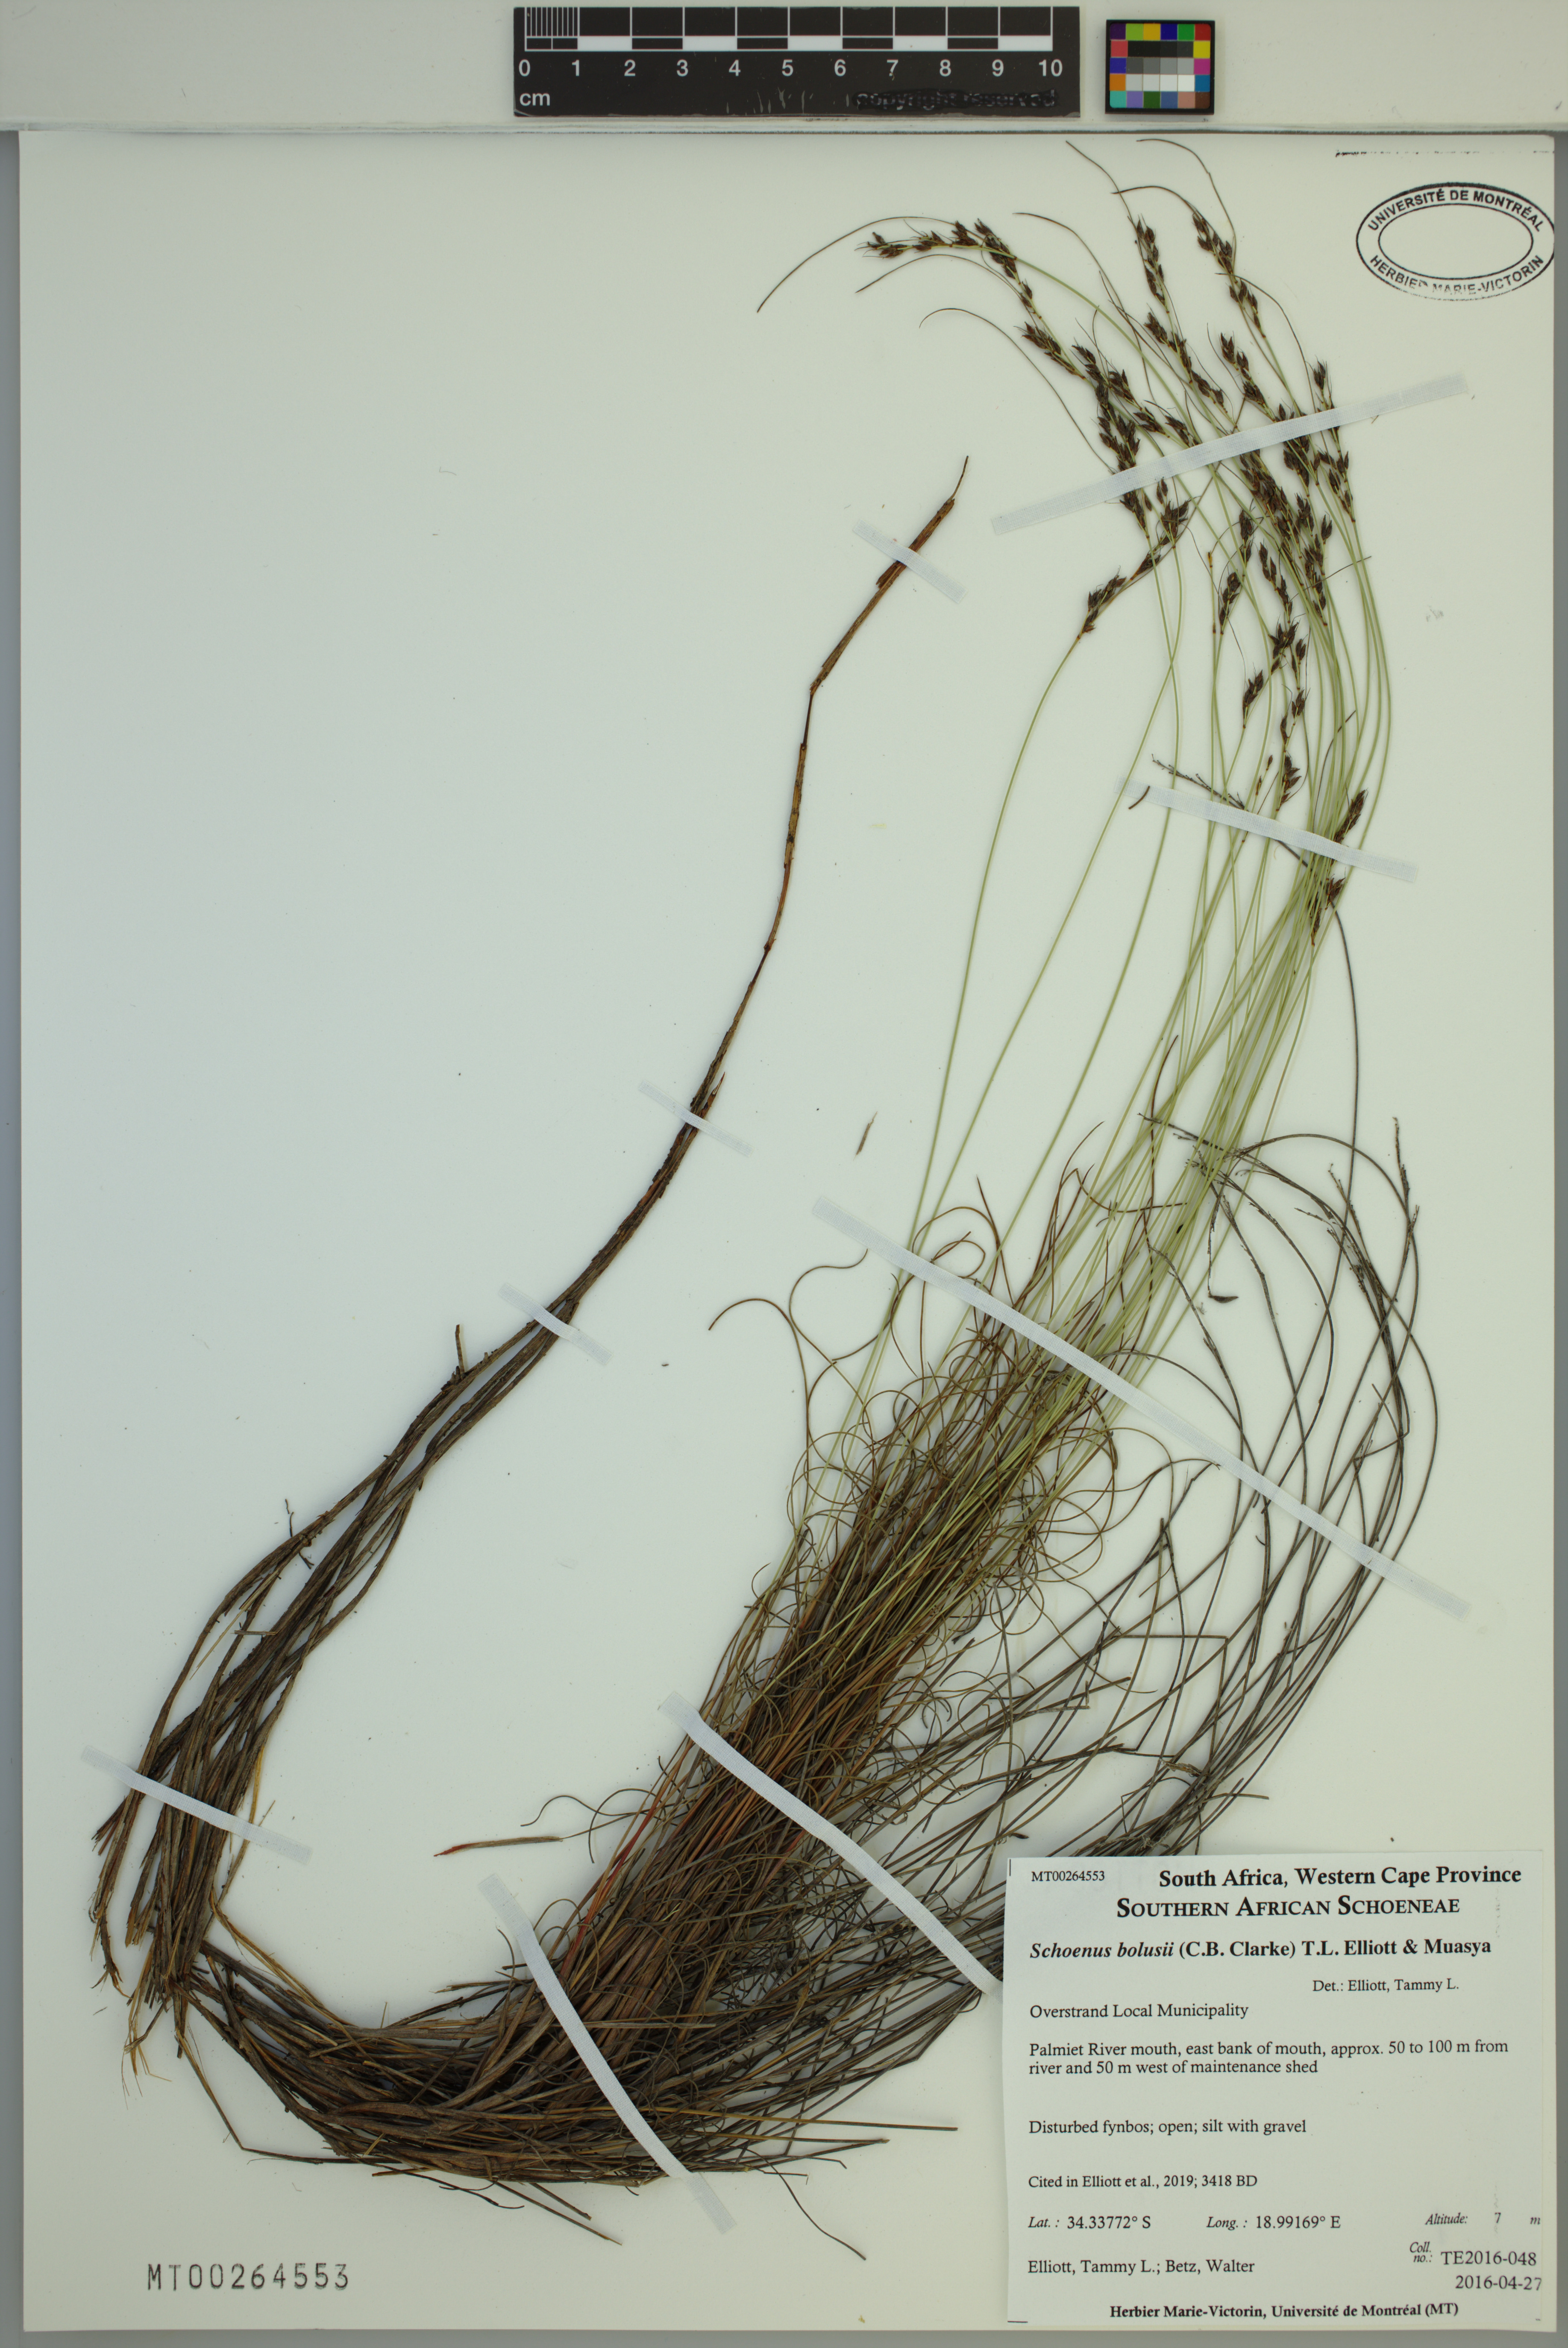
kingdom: Plantae
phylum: Tracheophyta
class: Liliopsida
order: Poales
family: Cyperaceae
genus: Schoenus
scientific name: Schoenus bolusii
